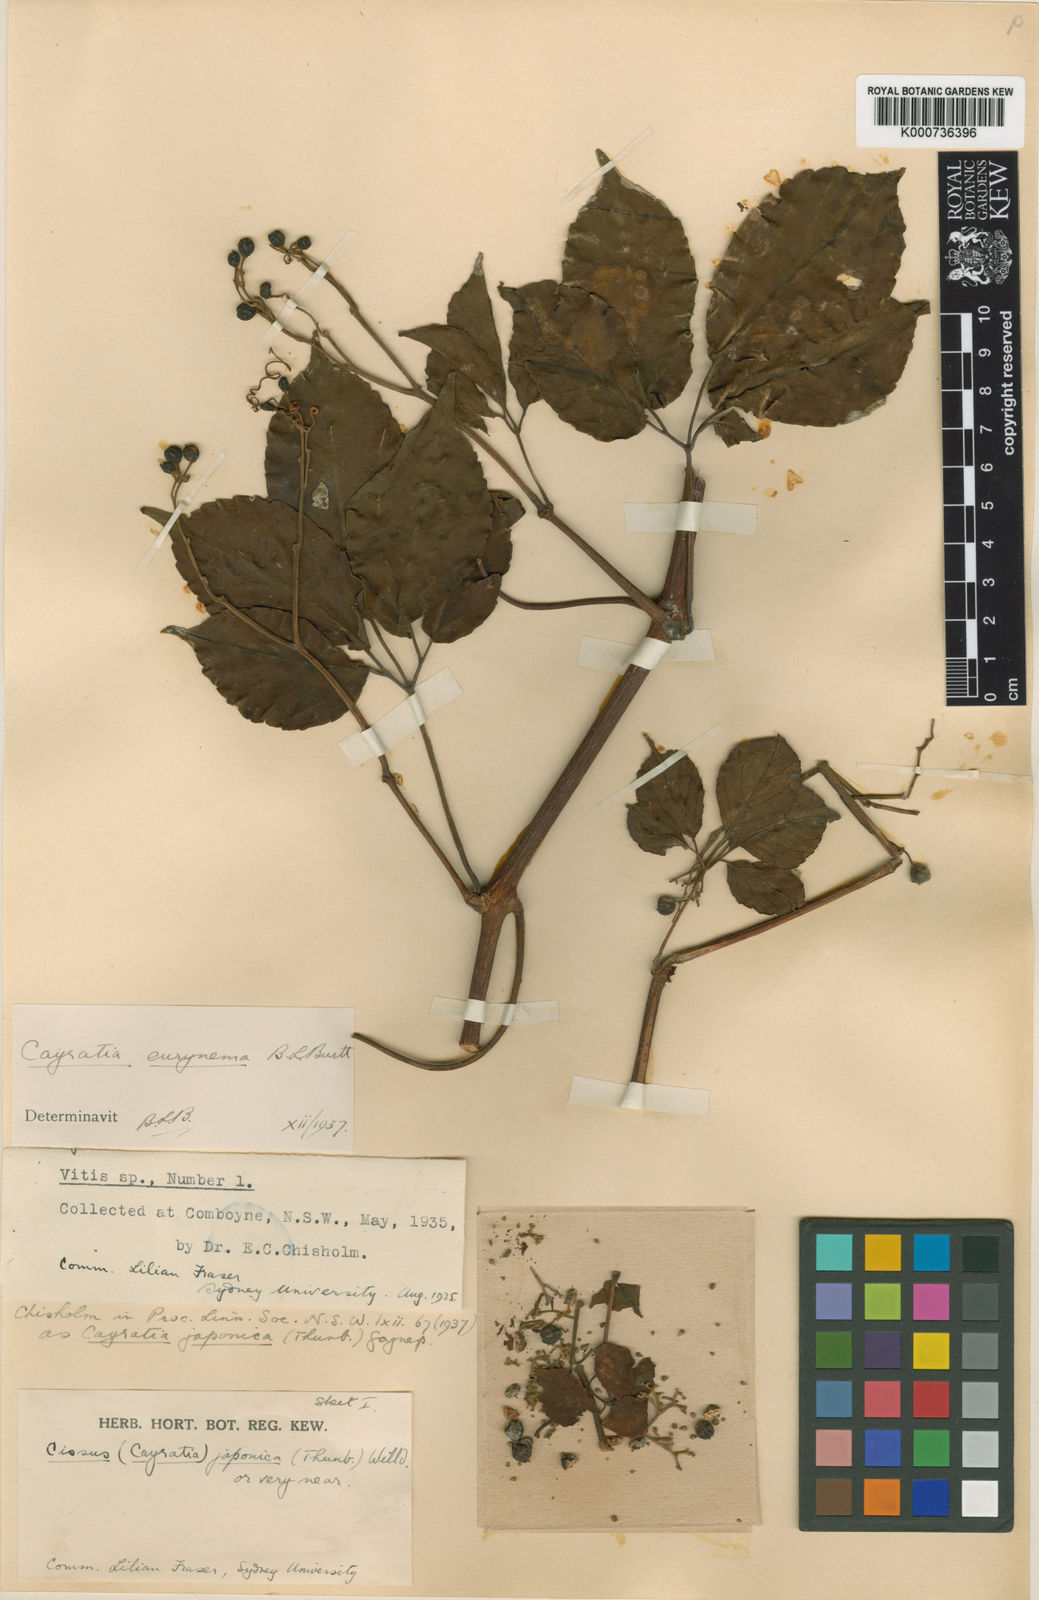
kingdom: Plantae
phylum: Tracheophyta
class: Magnoliopsida
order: Vitales
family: Vitaceae
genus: Causonis
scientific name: Causonis eurynema
